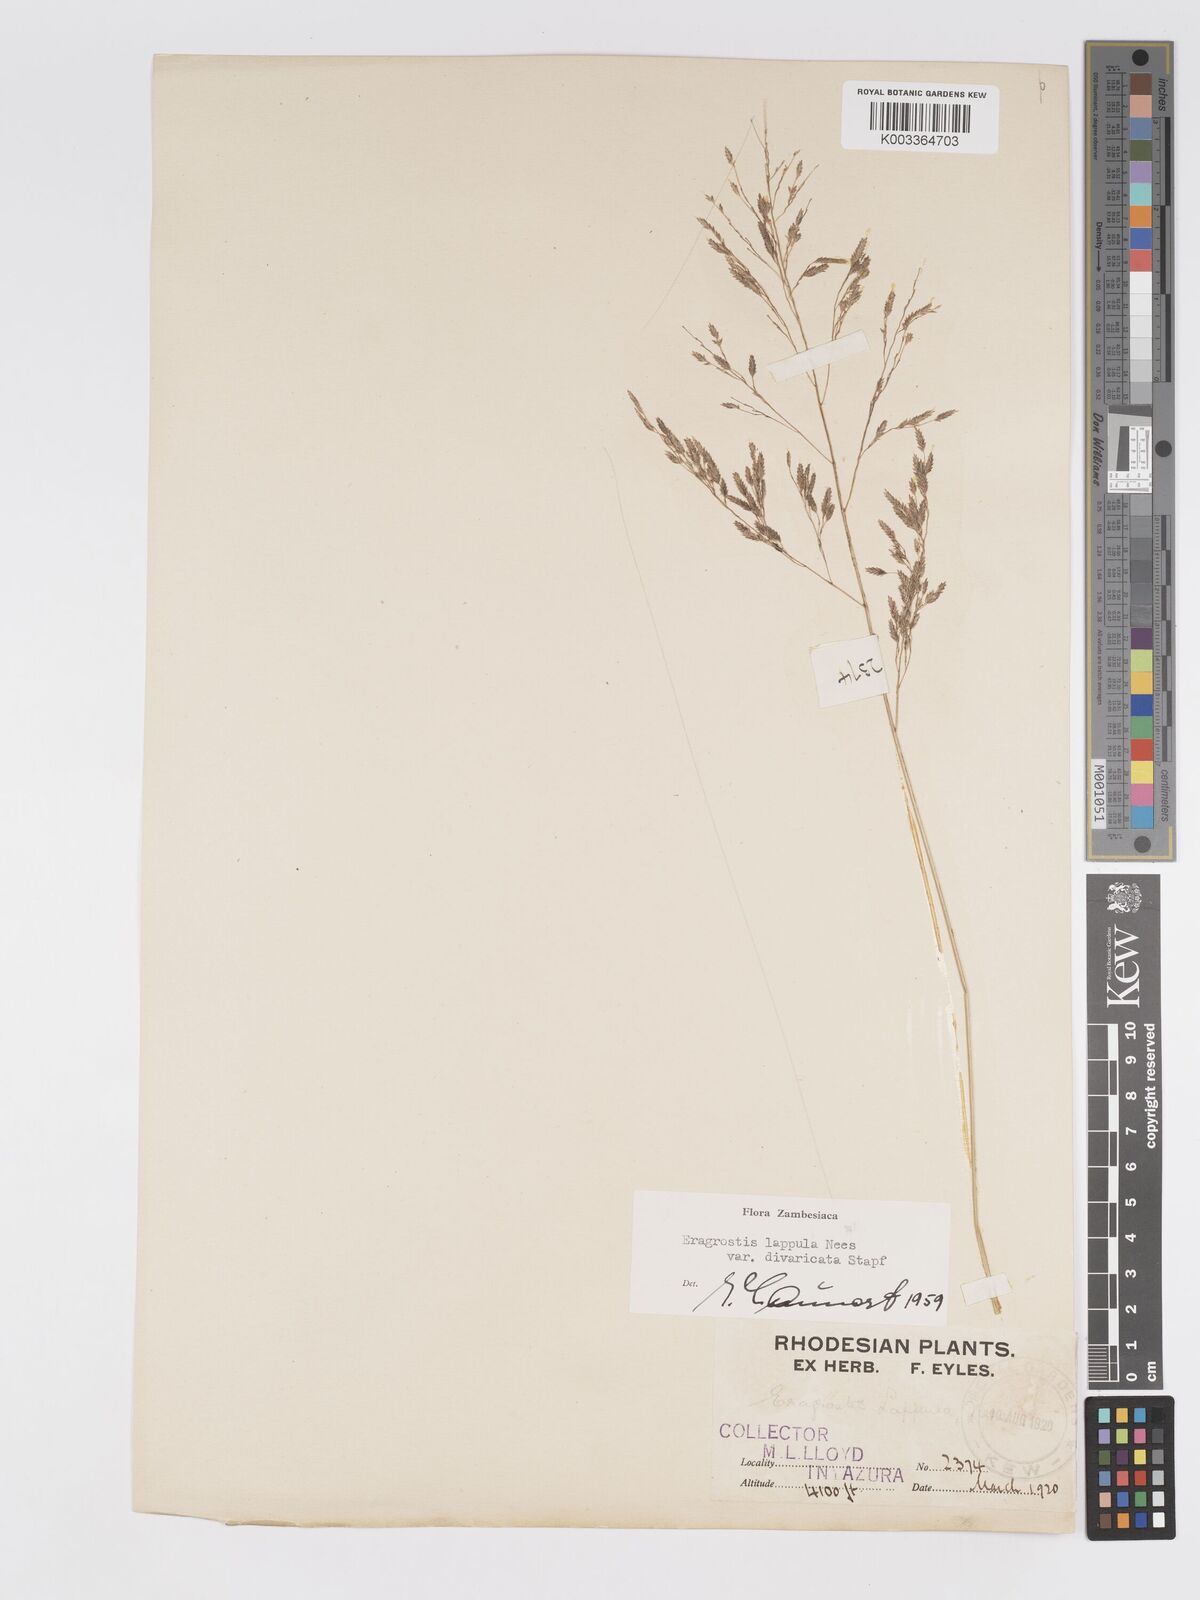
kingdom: Plantae
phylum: Tracheophyta
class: Liliopsida
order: Poales
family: Poaceae
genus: Eragrostis
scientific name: Eragrostis lappula
